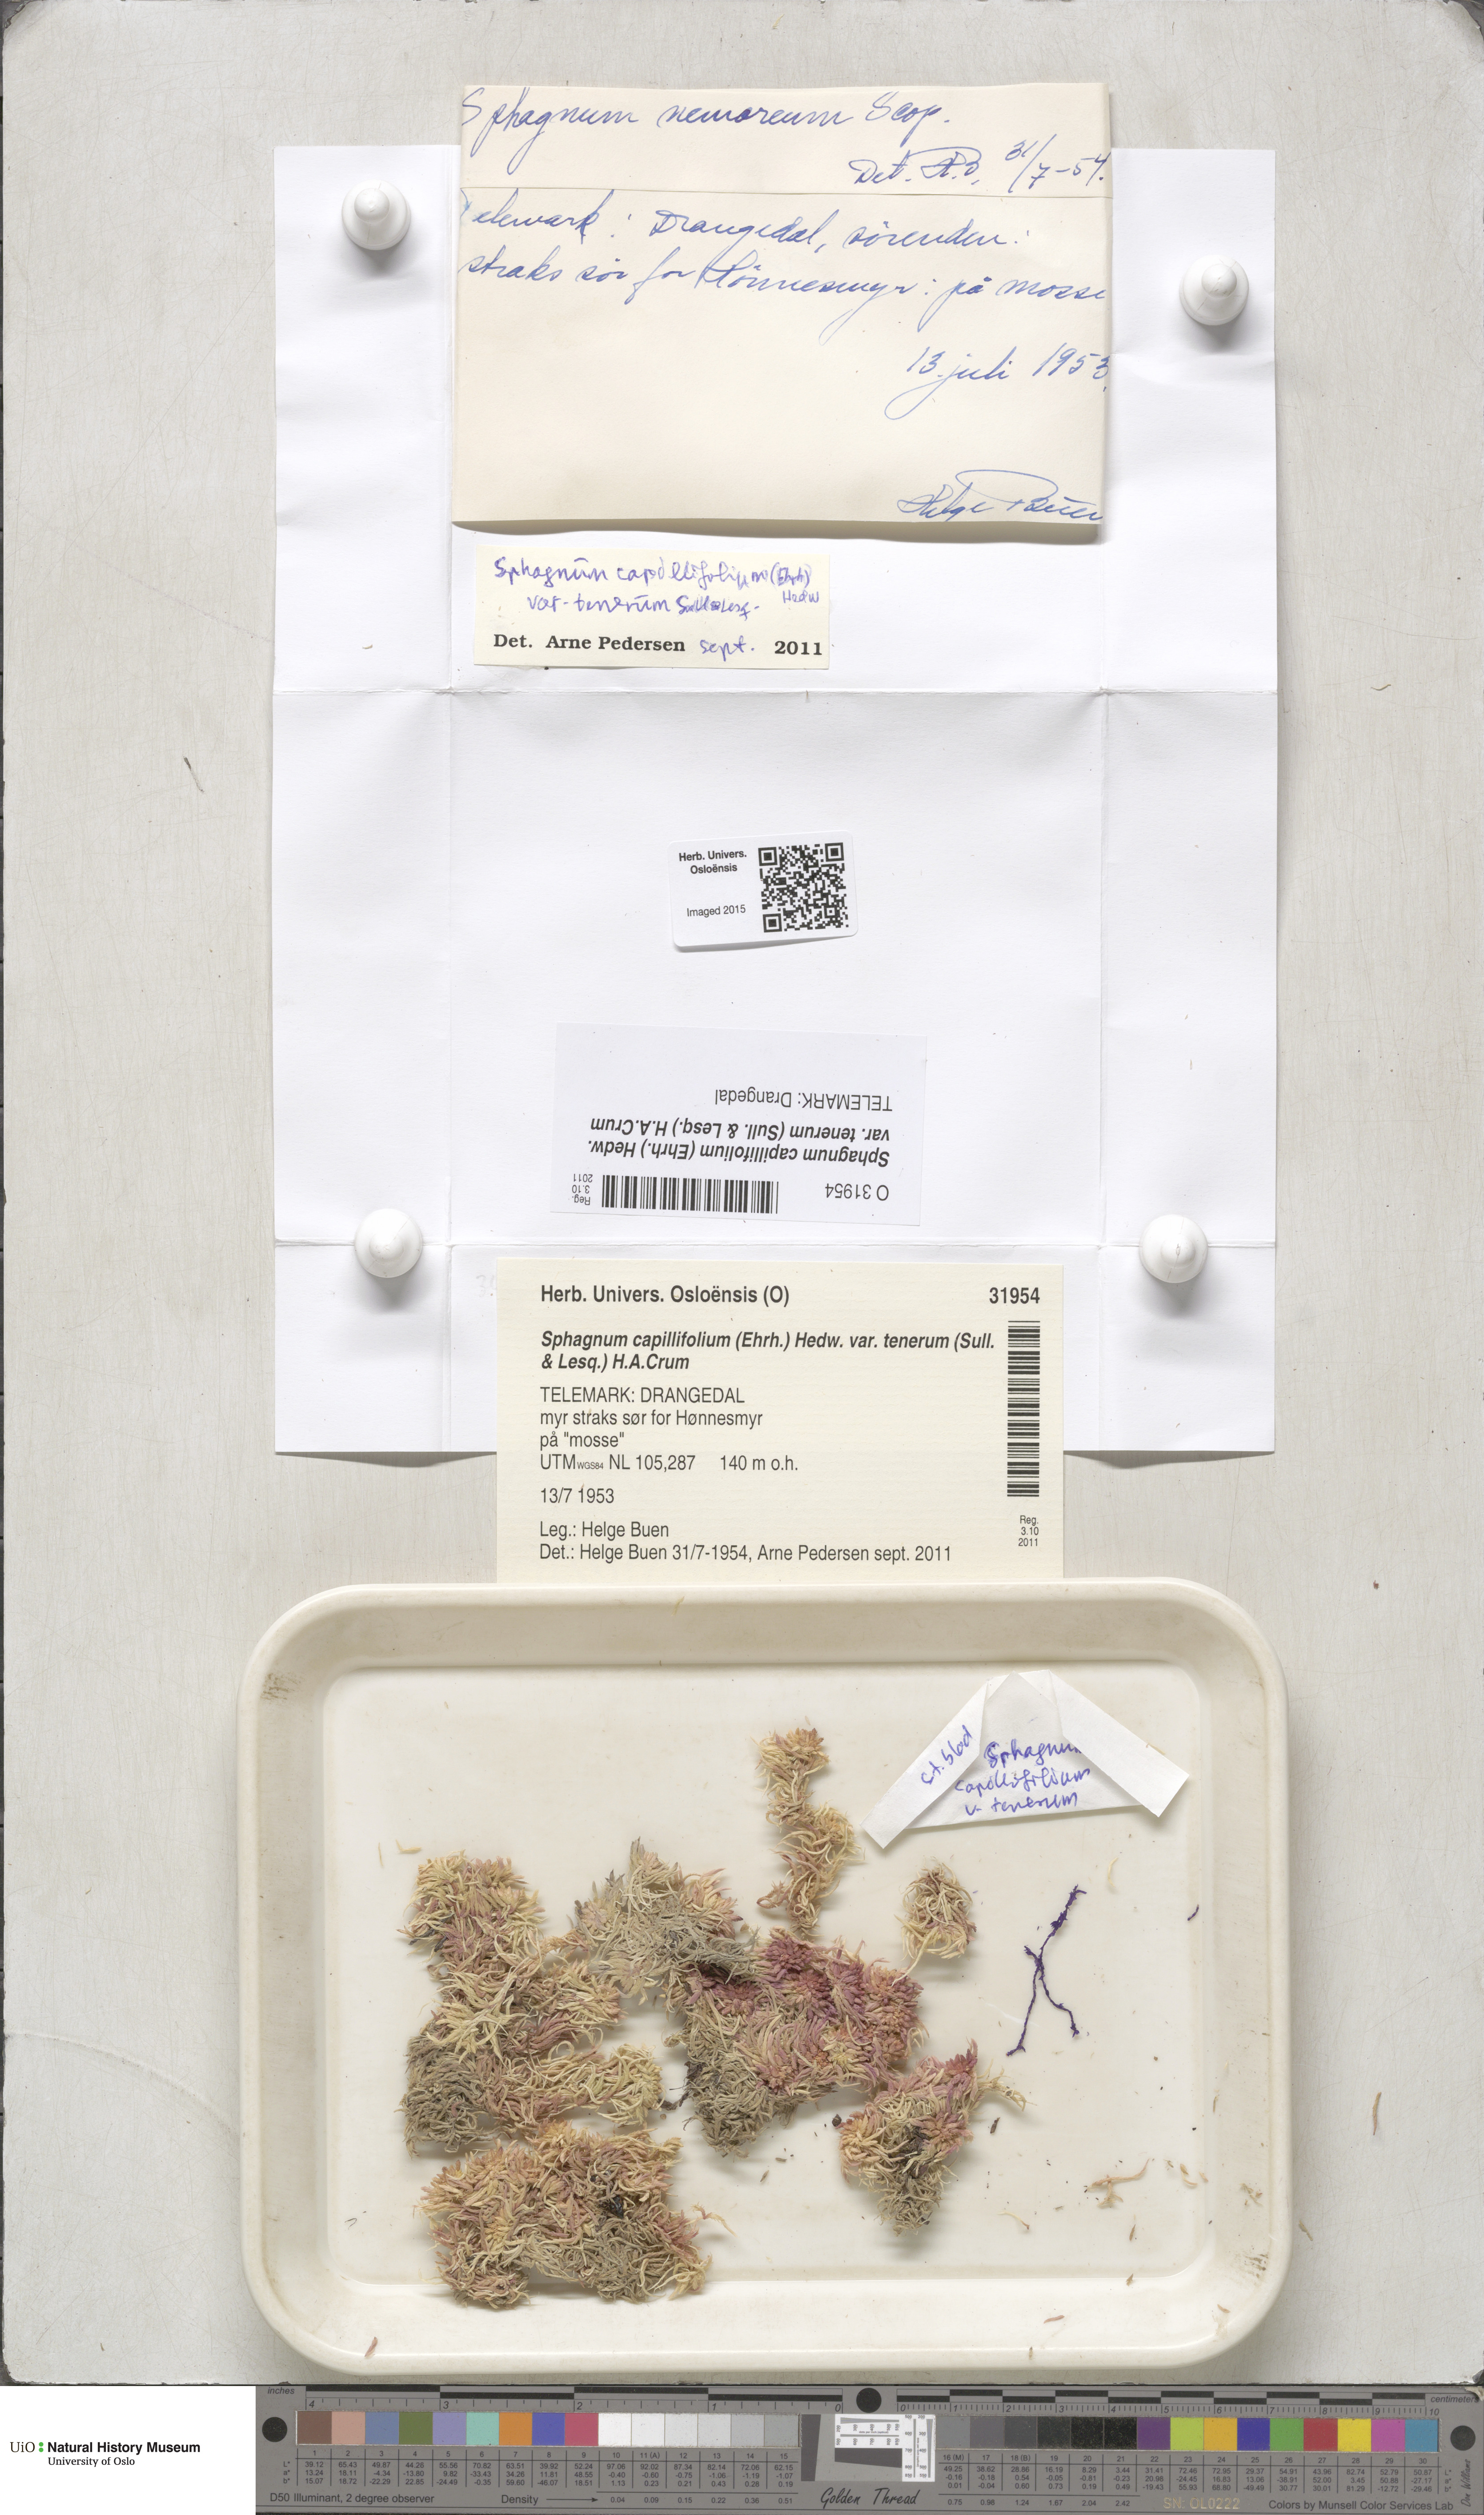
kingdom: Plantae
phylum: Bryophyta
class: Sphagnopsida
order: Sphagnales
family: Sphagnaceae
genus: Sphagnum
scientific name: Sphagnum tenerum
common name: Slender peat moss
